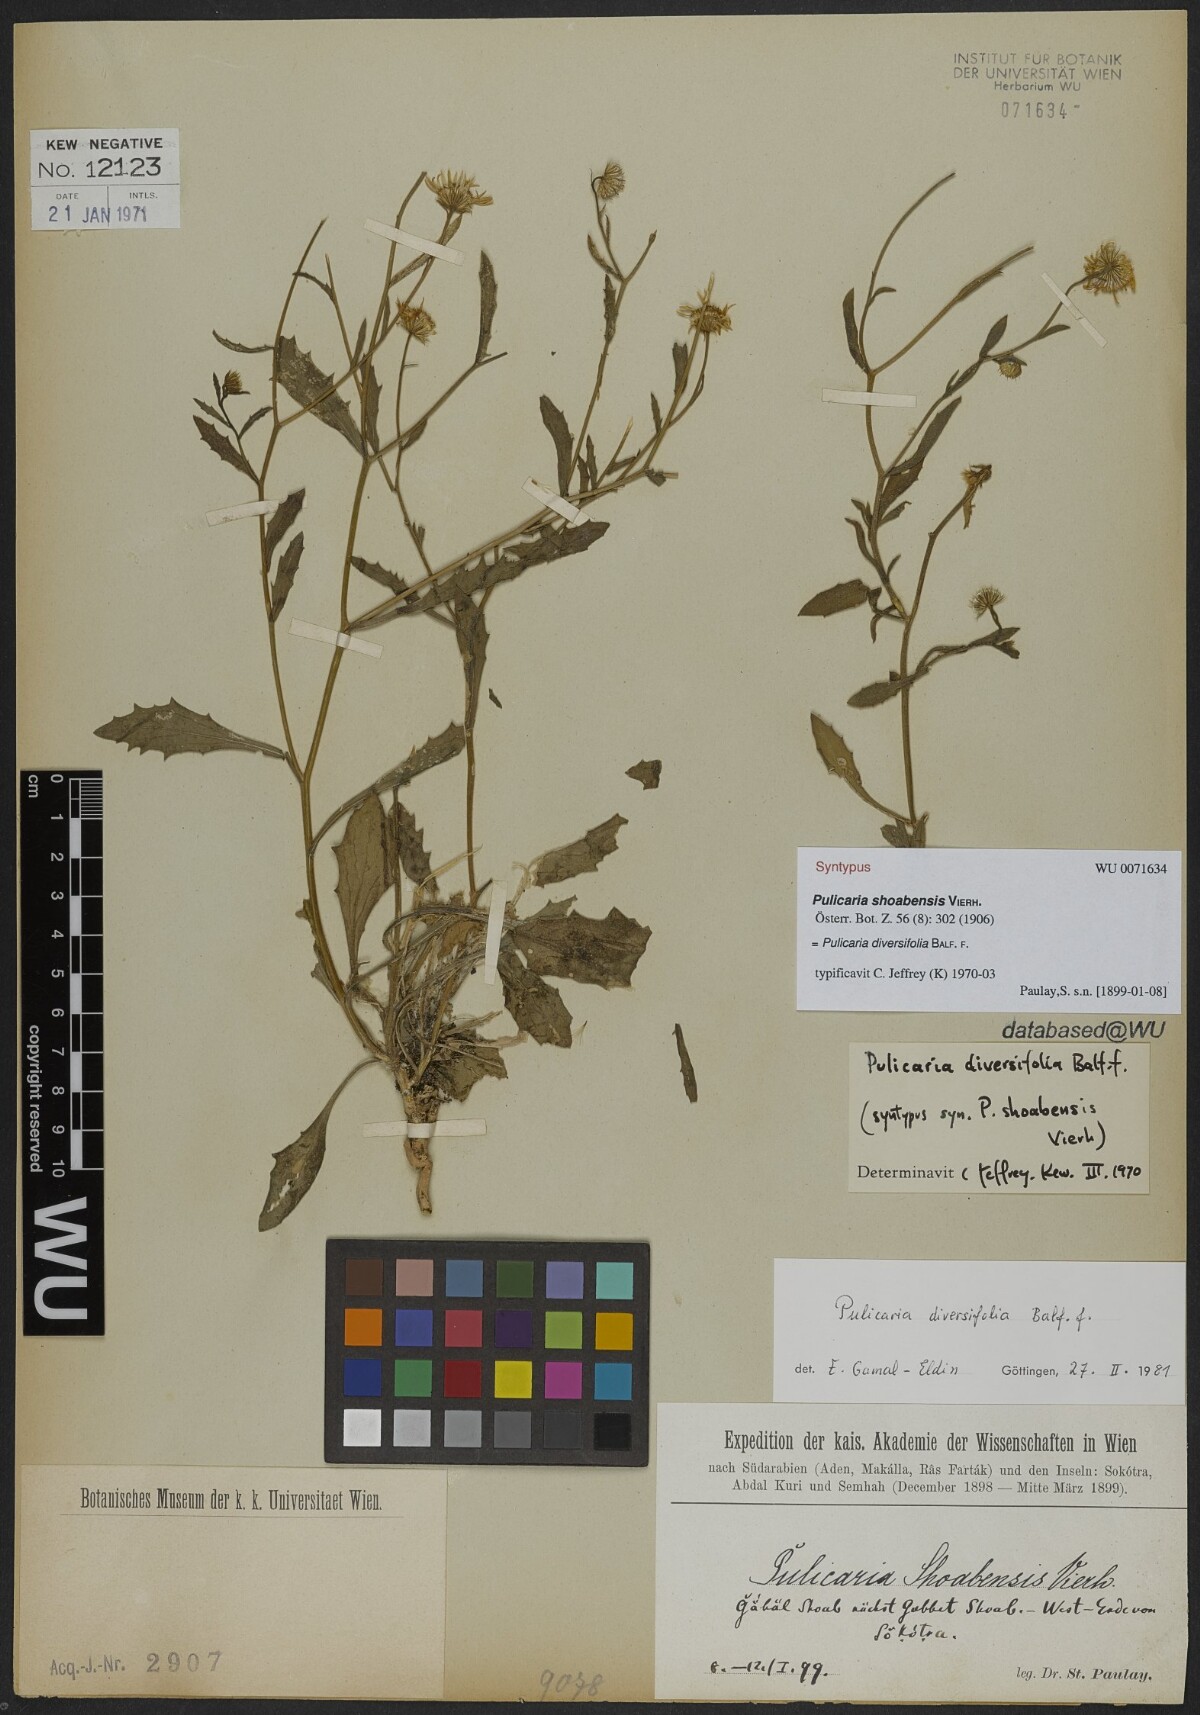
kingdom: Plantae
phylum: Tracheophyta
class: Magnoliopsida
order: Asterales
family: Asteraceae
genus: Pulicaria
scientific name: Pulicaria diversifolia
